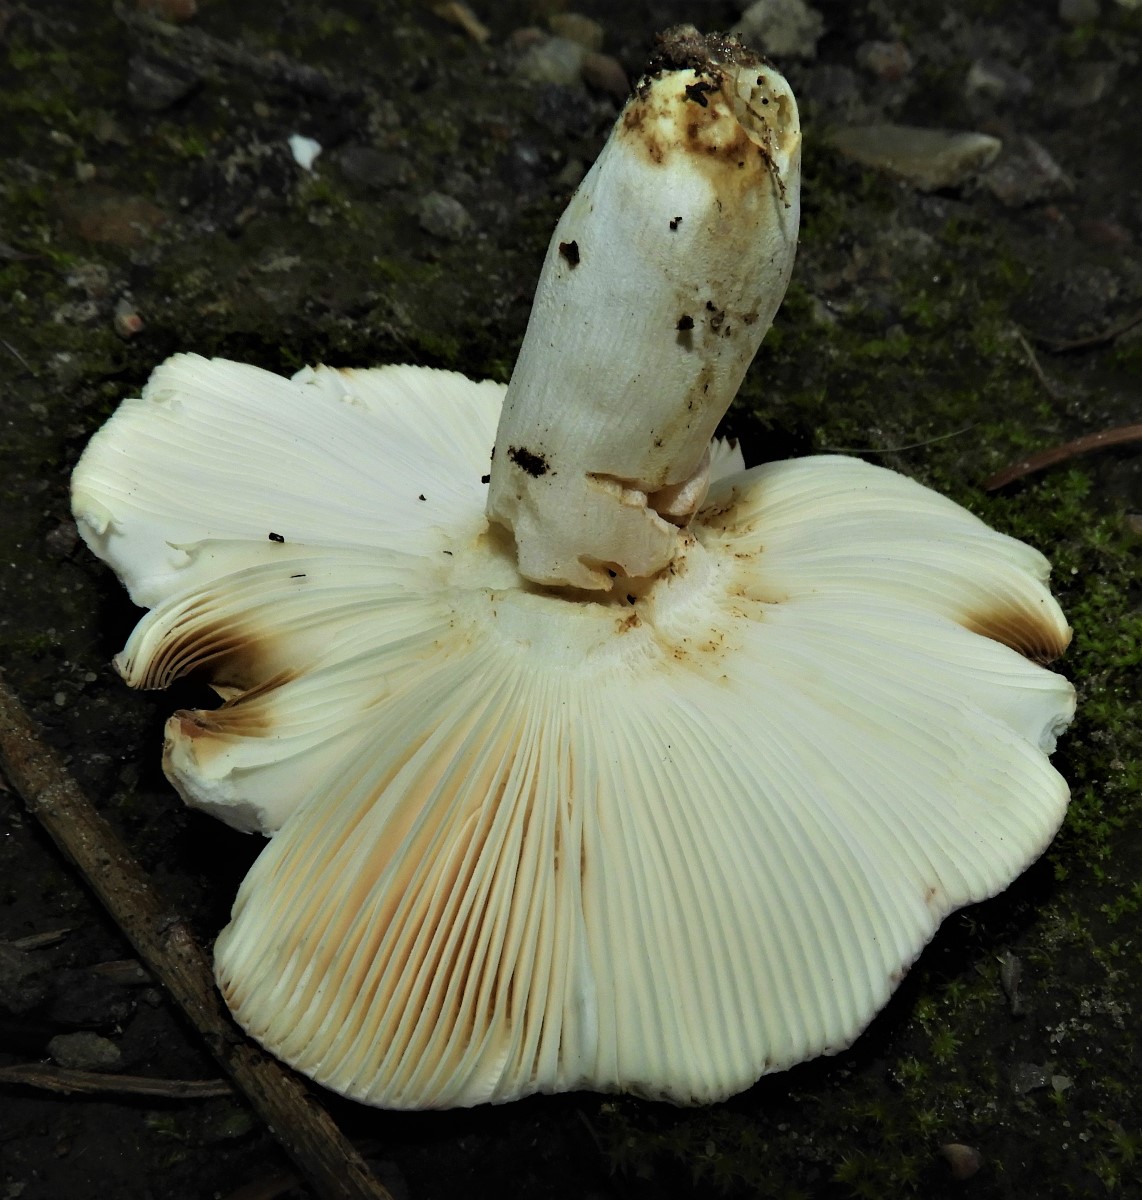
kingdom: Fungi
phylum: Basidiomycota
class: Agaricomycetes
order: Russulales
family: Russulaceae
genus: Russula
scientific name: Russula
